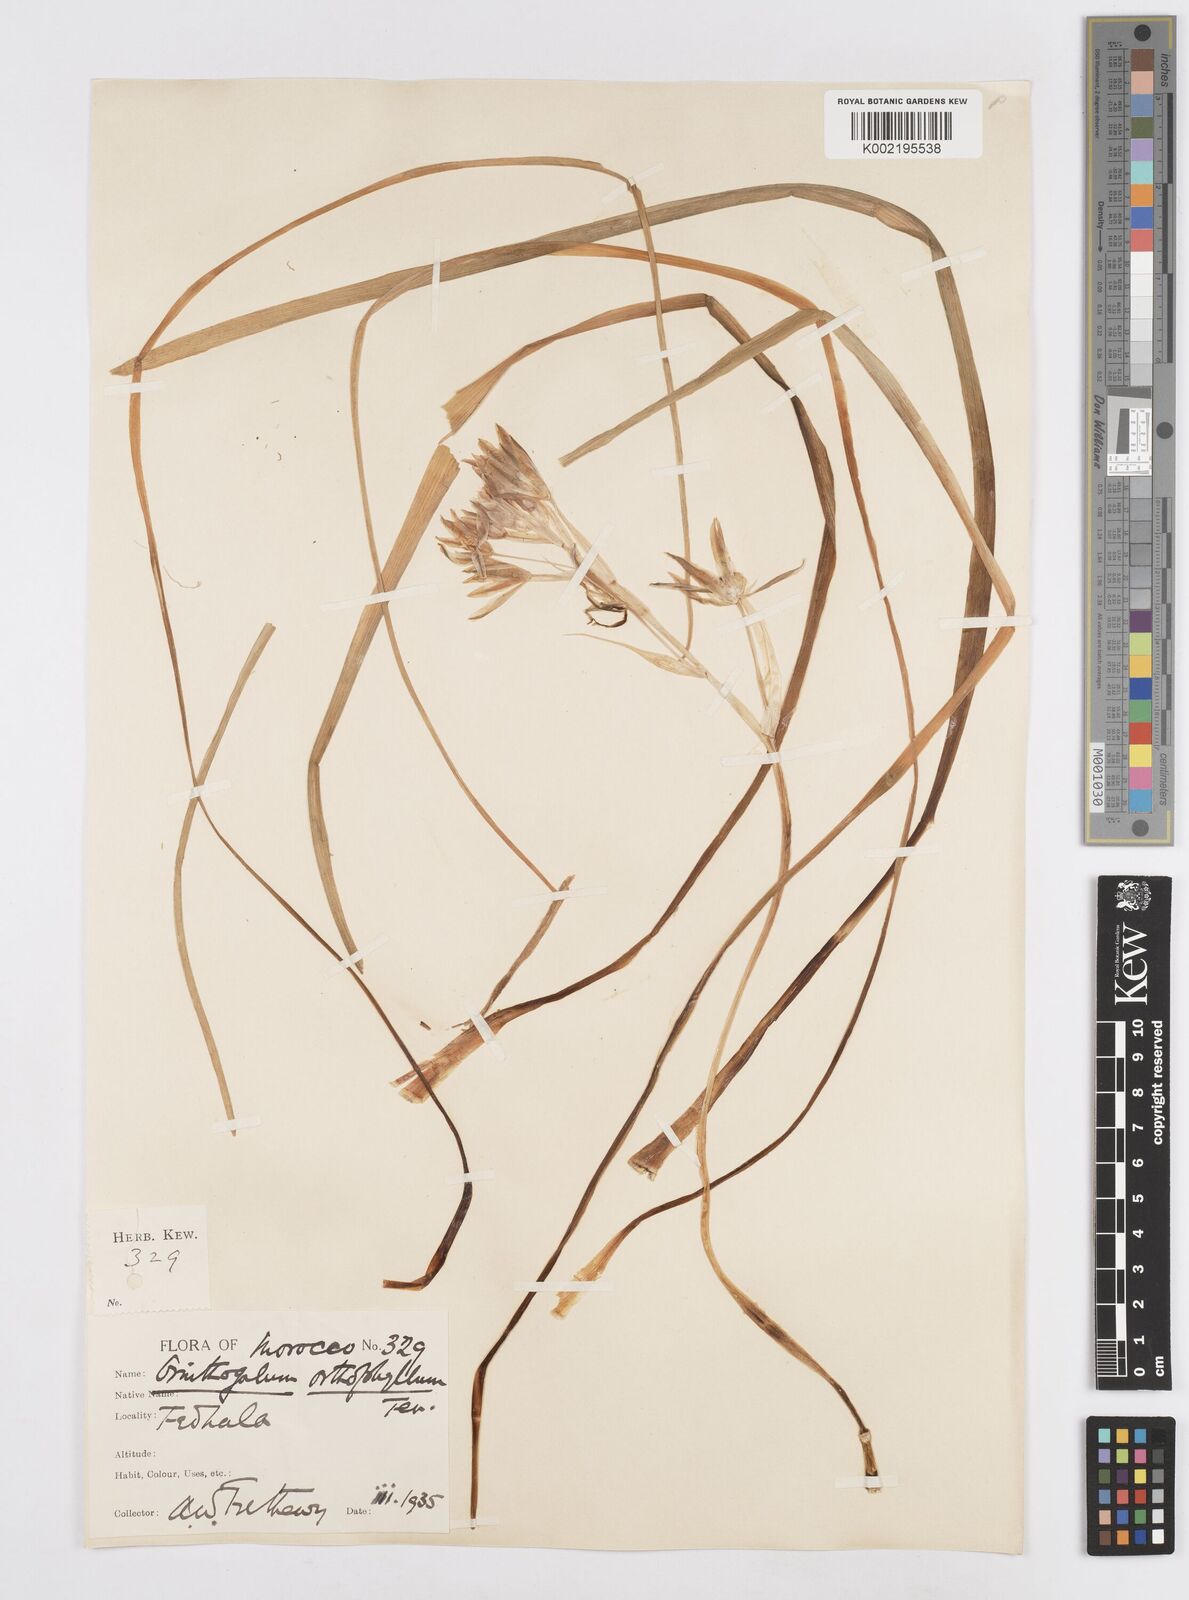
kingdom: Plantae
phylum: Tracheophyta
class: Liliopsida
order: Asparagales
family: Asparagaceae
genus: Ornithogalum
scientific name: Ornithogalum baeticum
